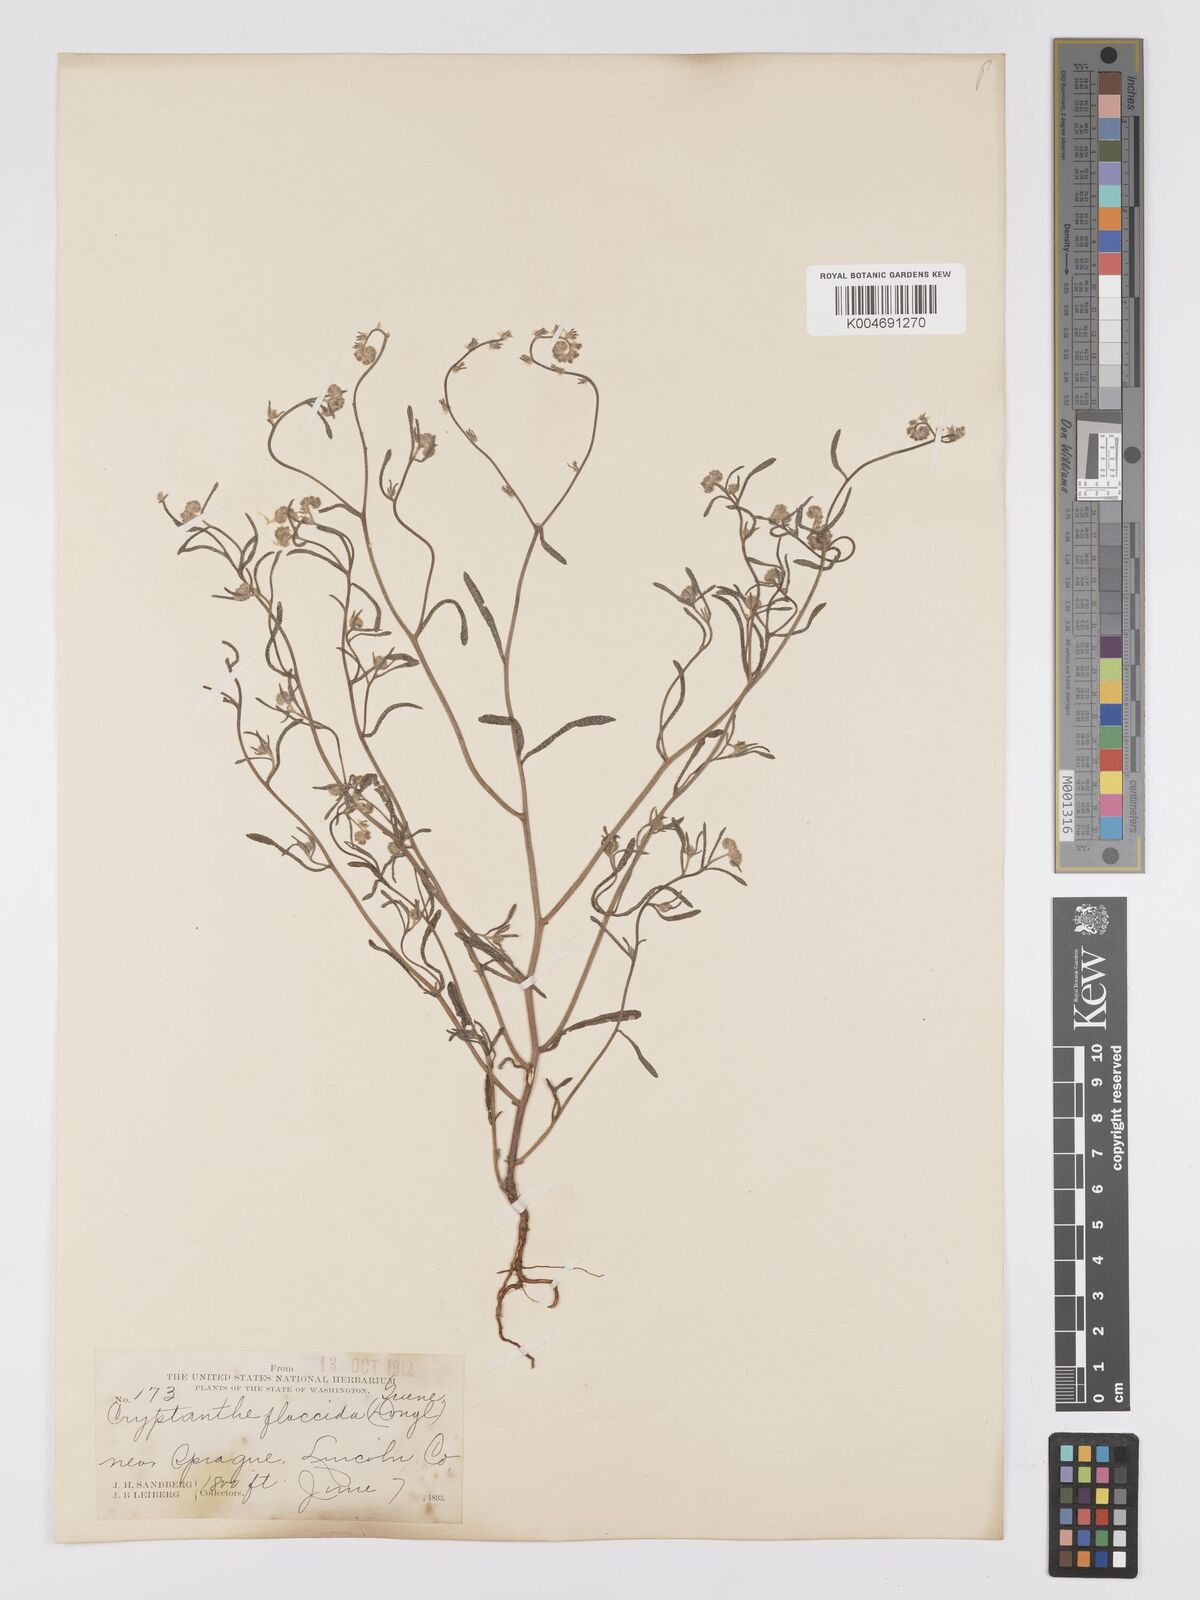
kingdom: Plantae
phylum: Tracheophyta
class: Magnoliopsida
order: Boraginales
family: Boraginaceae
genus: Cryptantha
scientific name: Cryptantha flaccida
